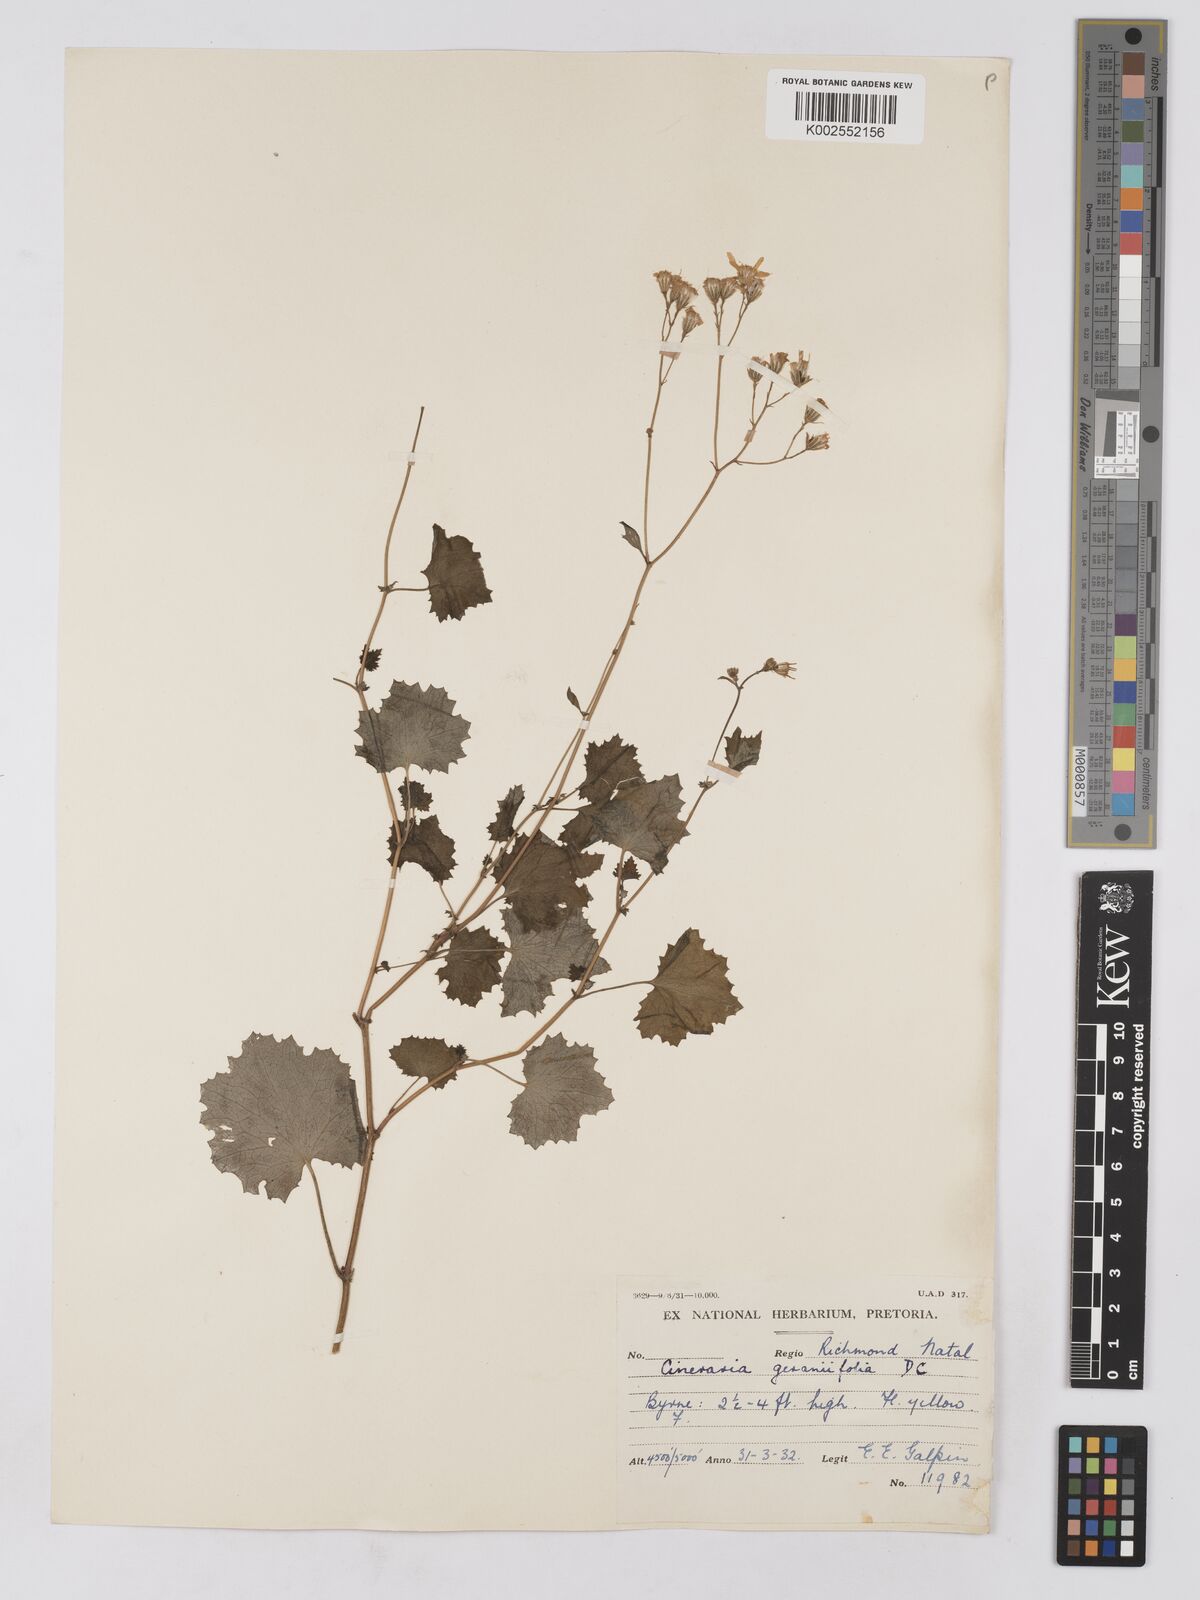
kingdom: Plantae
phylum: Tracheophyta
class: Magnoliopsida
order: Asterales
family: Asteraceae
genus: Cineraria
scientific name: Cineraria deltoidea
